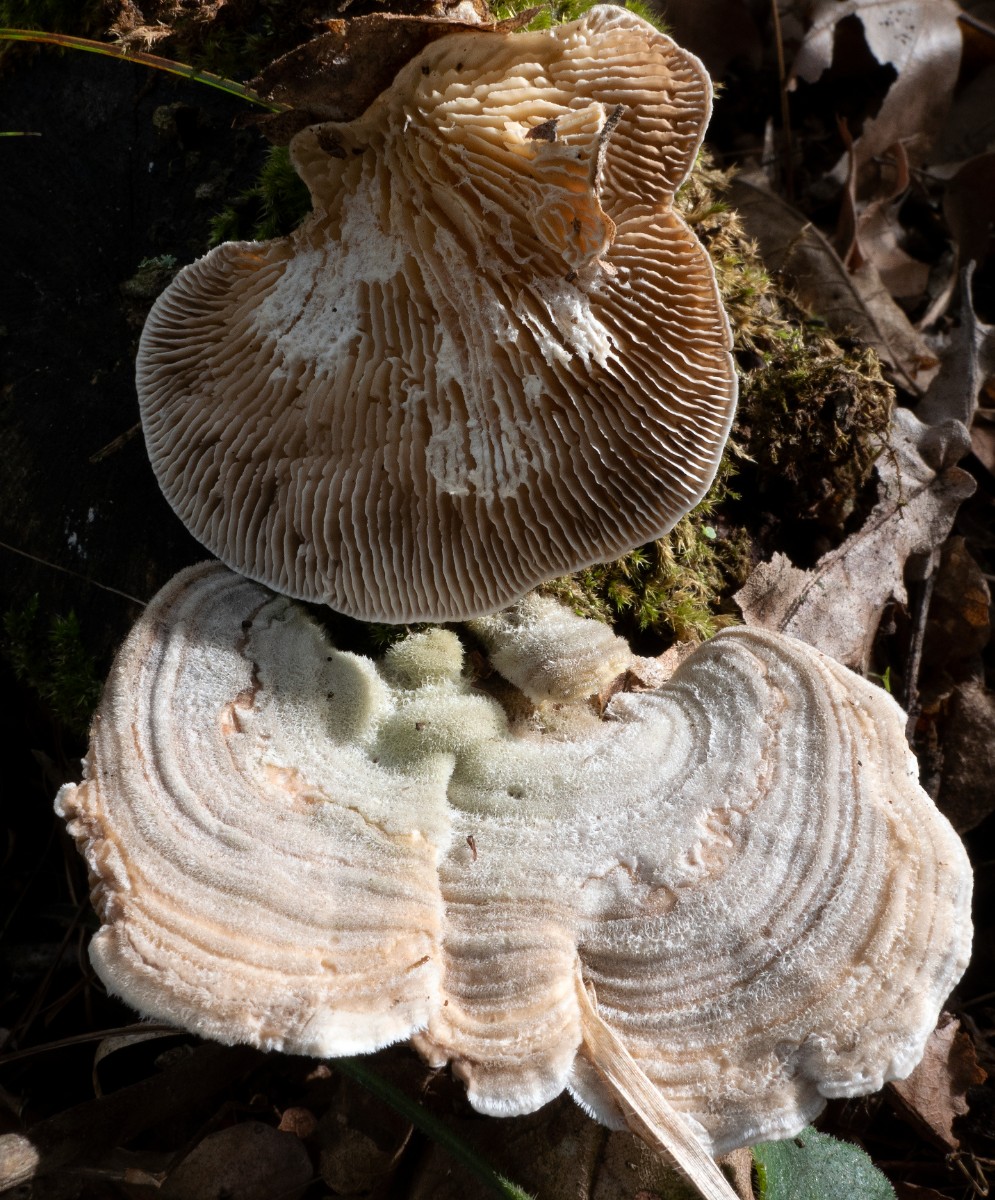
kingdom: Fungi
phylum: Basidiomycota
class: Agaricomycetes
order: Polyporales
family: Polyporaceae
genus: Trametes
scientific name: Trametes
